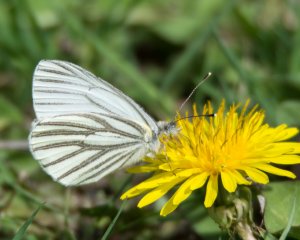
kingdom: Animalia
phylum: Arthropoda
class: Insecta
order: Lepidoptera
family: Pieridae
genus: Pieris
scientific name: Pieris oleracea
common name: Mustard White
